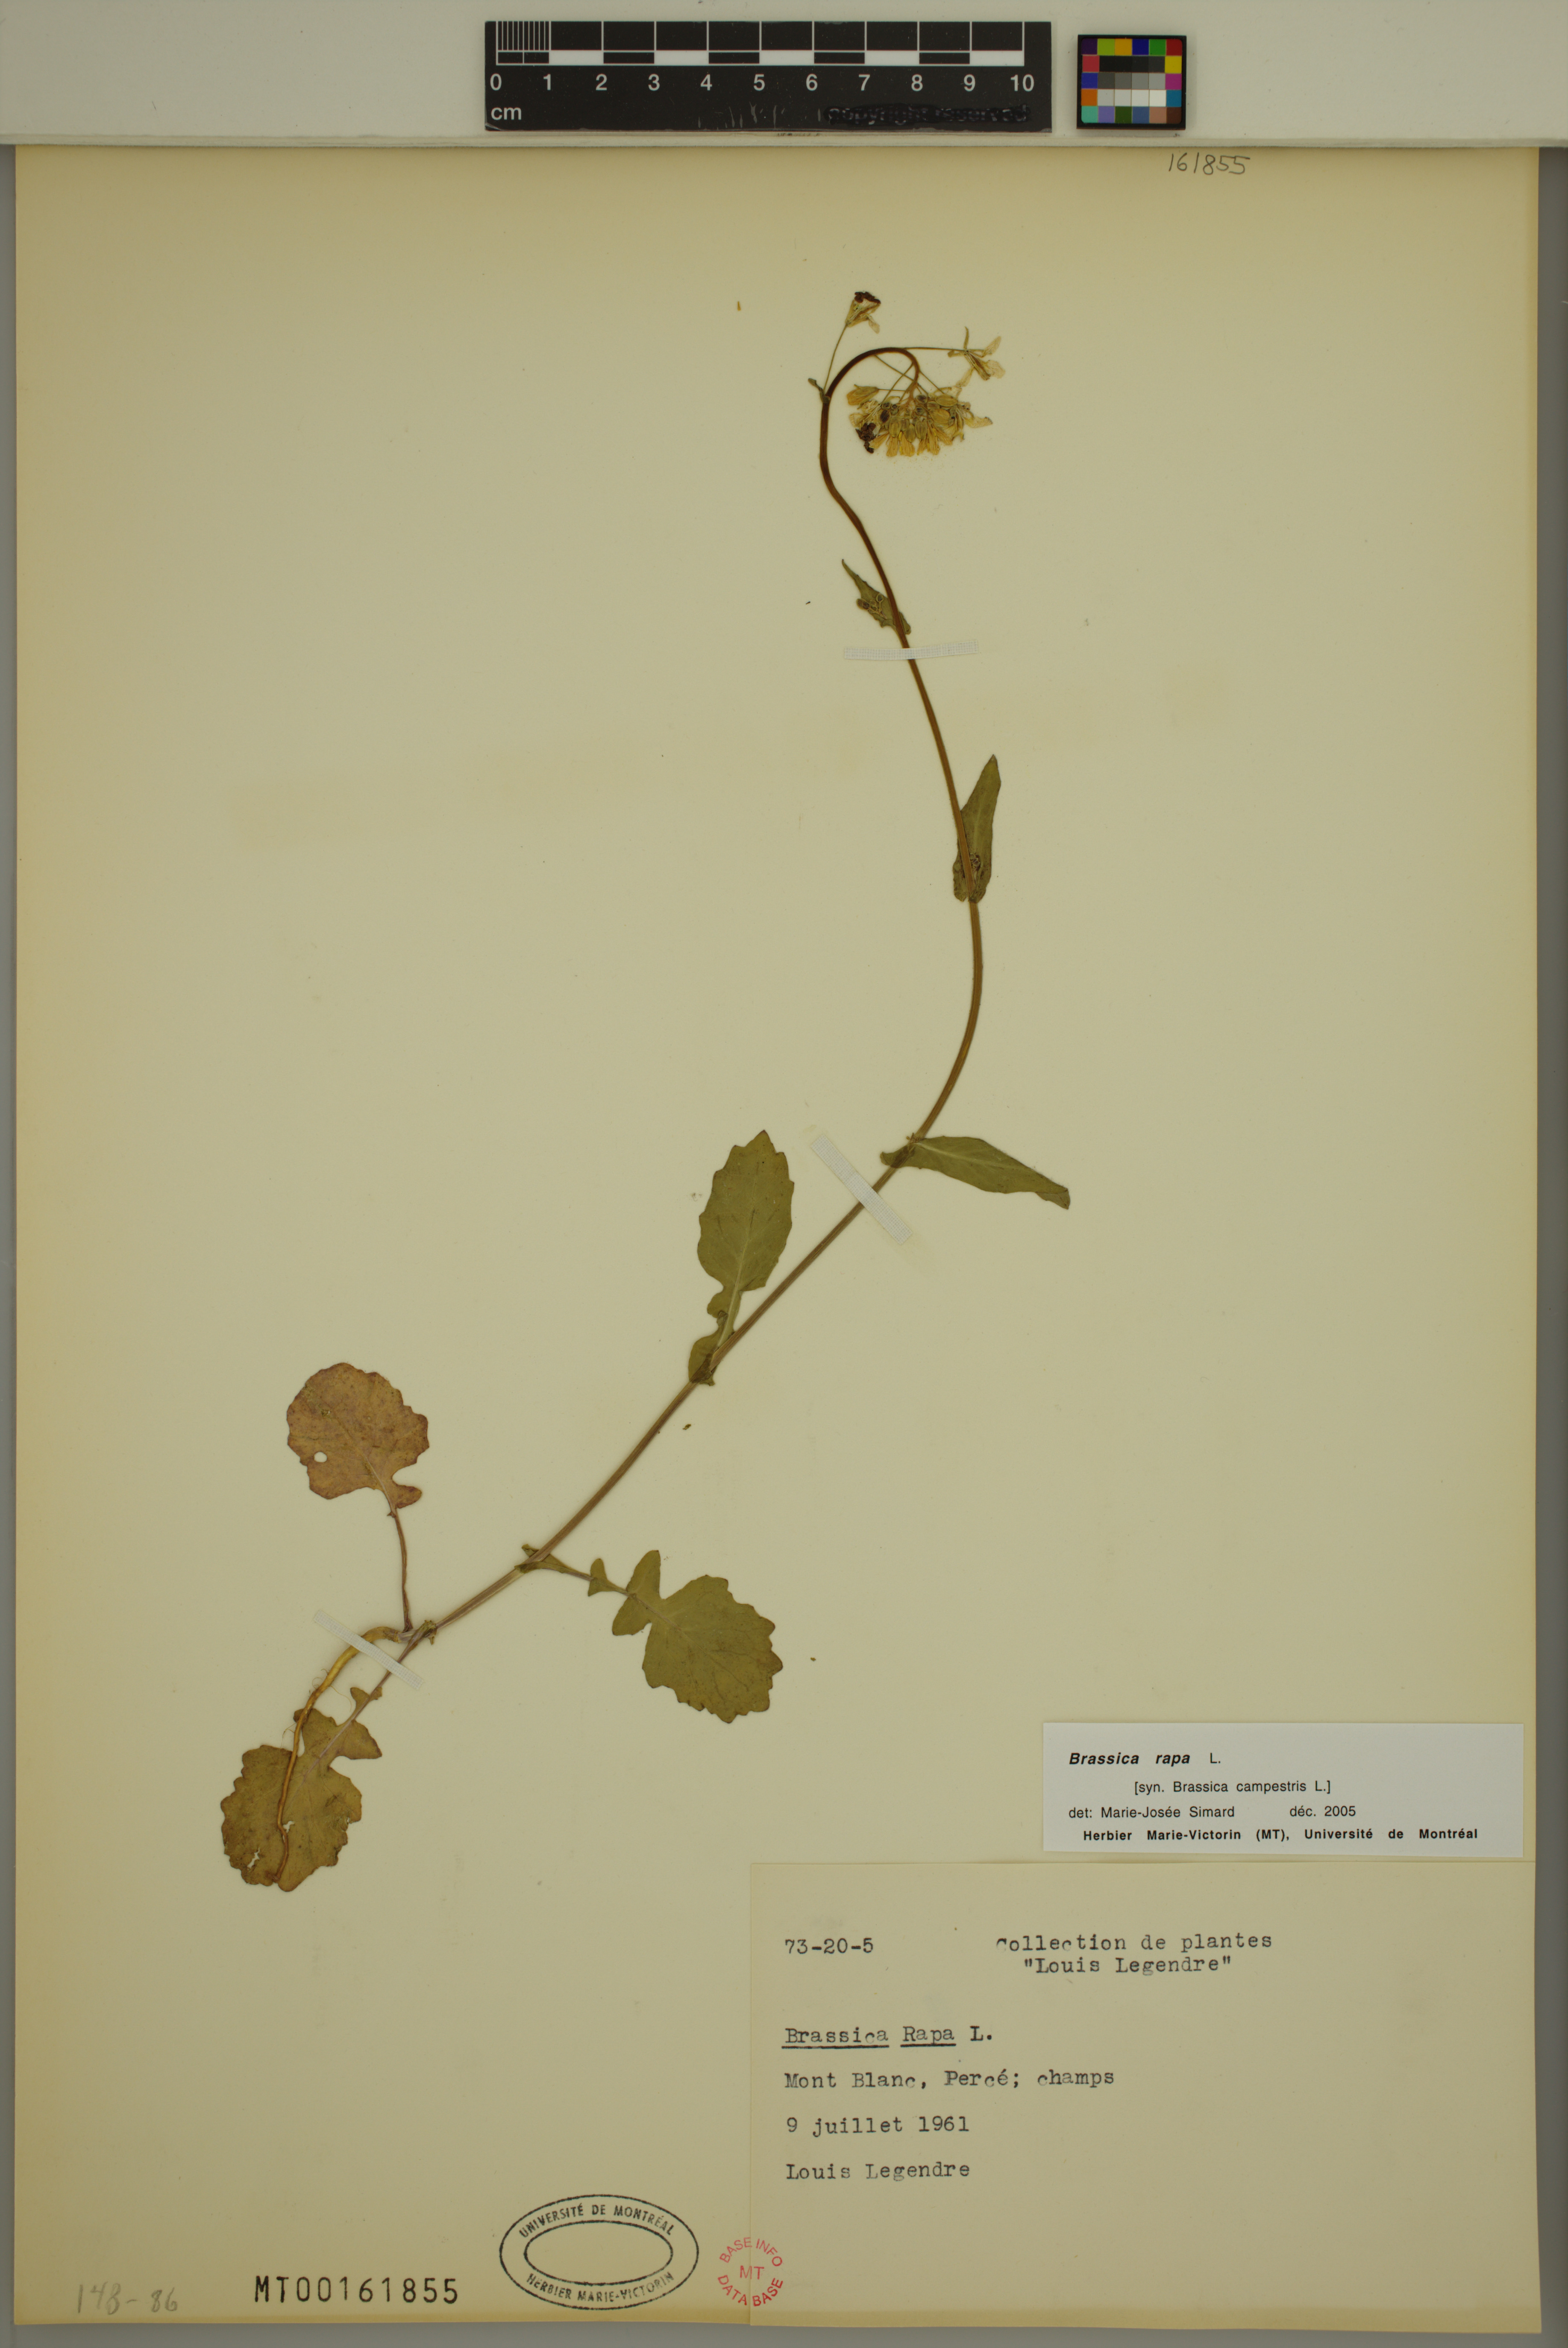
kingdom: Plantae
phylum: Tracheophyta
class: Magnoliopsida
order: Brassicales
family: Brassicaceae
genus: Brassica
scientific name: Brassica rapa
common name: Field mustard
